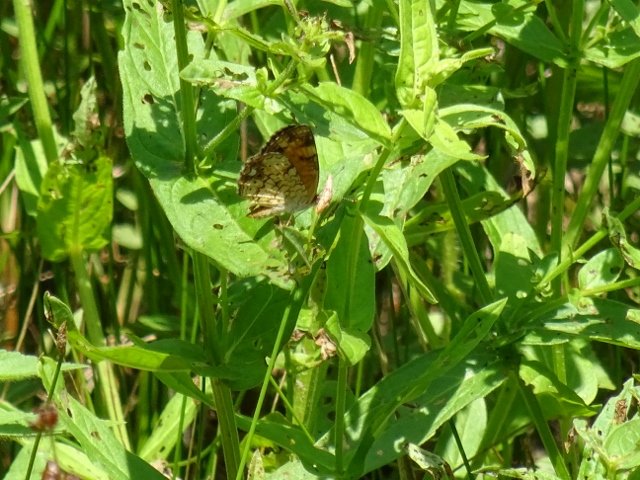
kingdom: Animalia
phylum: Arthropoda
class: Insecta
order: Lepidoptera
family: Nymphalidae
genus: Phyciodes
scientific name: Phyciodes tharos
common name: Northern Crescent
